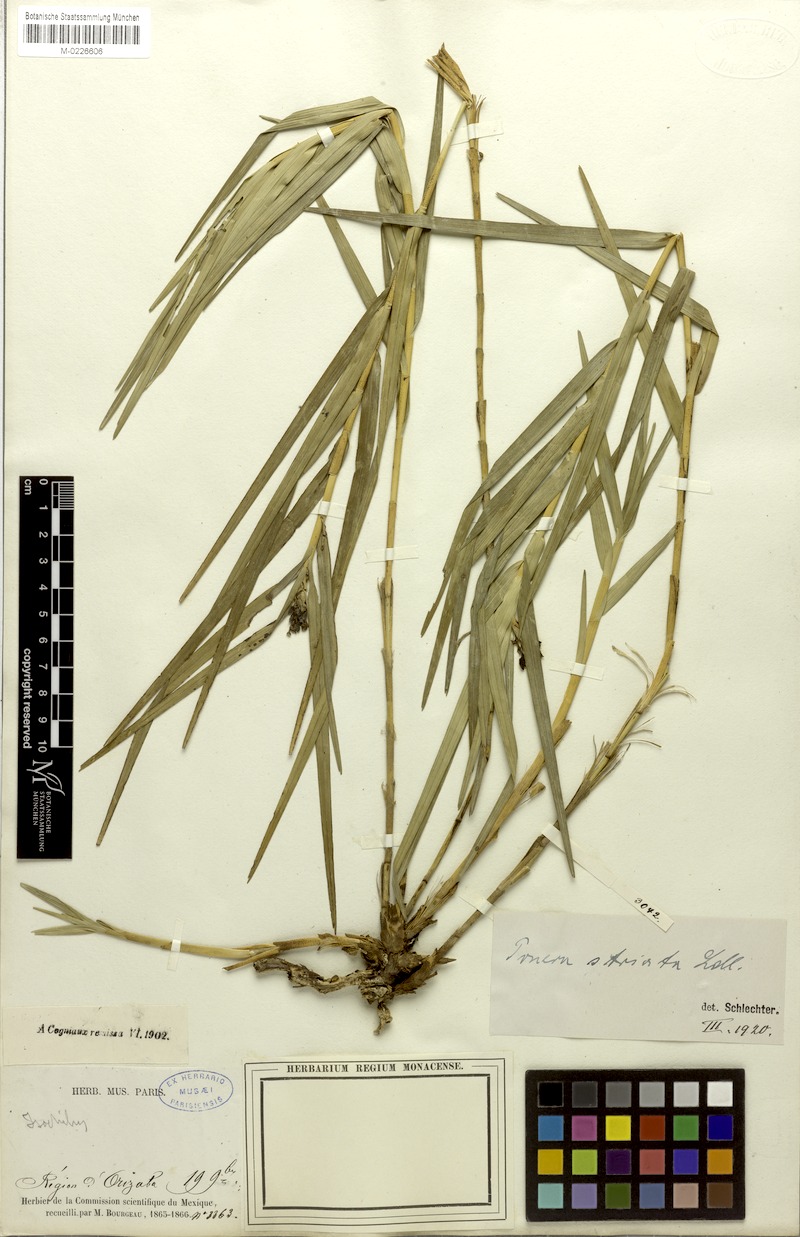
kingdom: Plantae
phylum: Tracheophyta
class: Liliopsida
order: Asparagales
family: Orchidaceae
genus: Nemaconia
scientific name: Nemaconia striata
